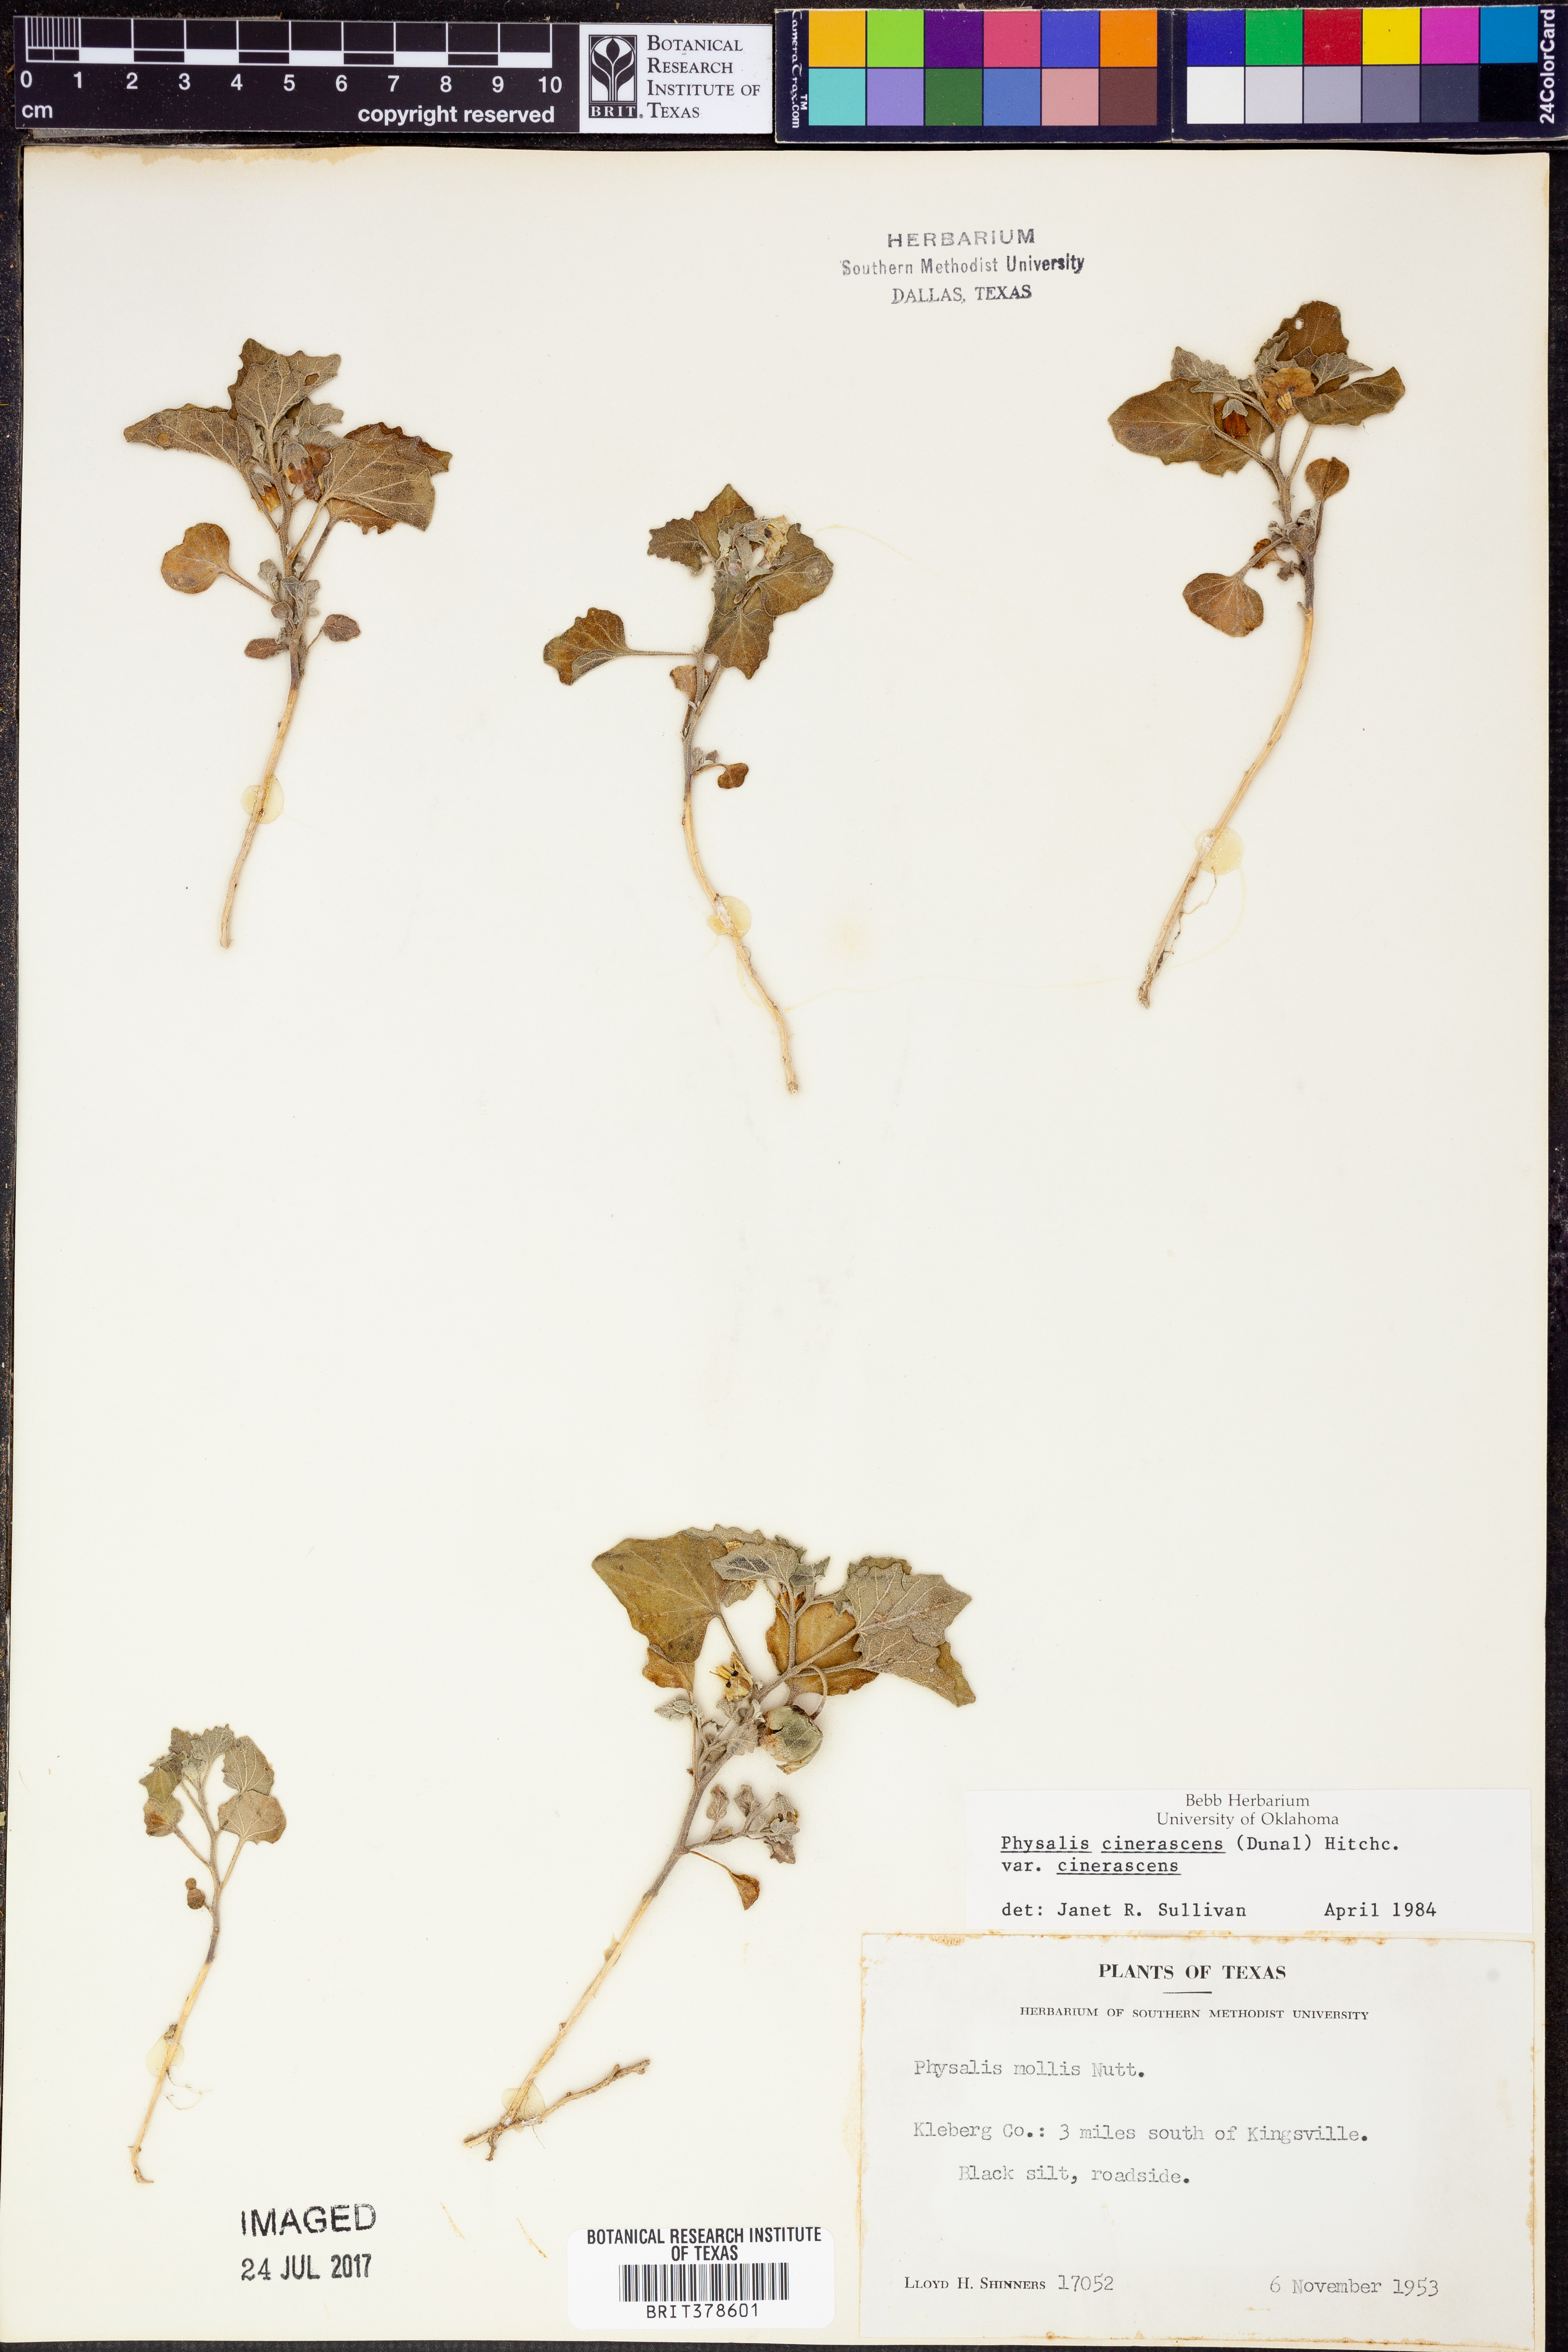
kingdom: Plantae
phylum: Tracheophyta
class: Magnoliopsida
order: Solanales
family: Solanaceae
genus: Physalis
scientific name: Physalis cinerascens
